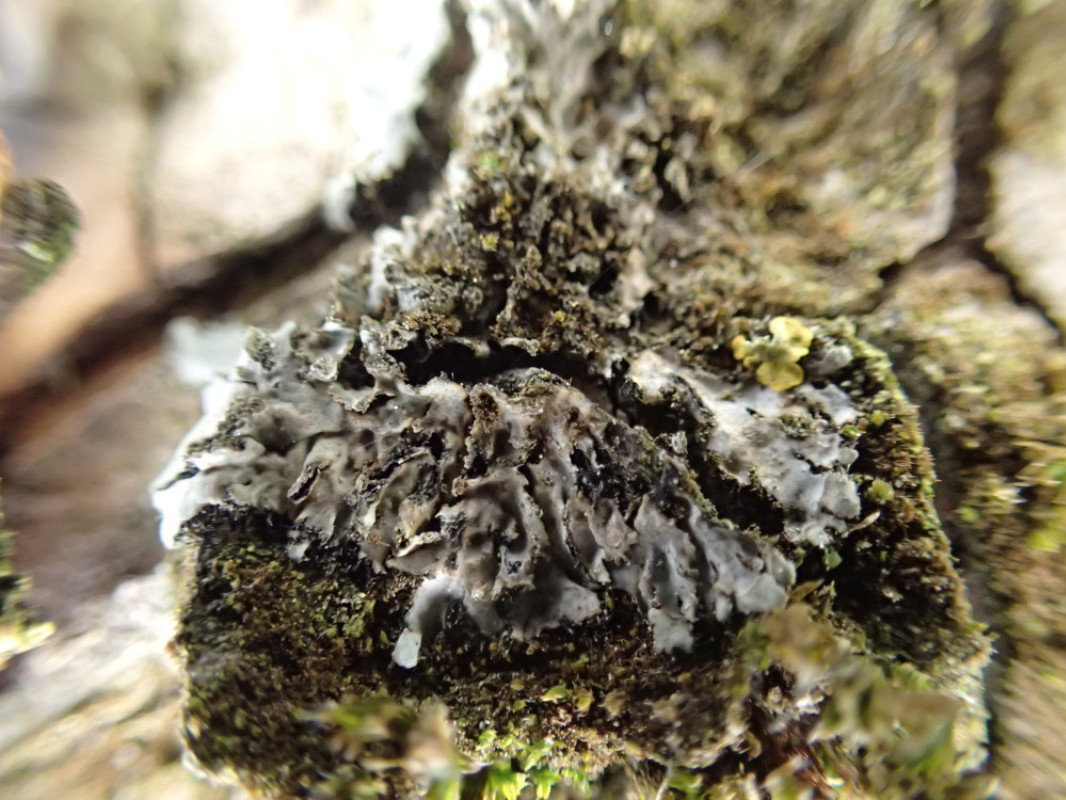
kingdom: Fungi
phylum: Ascomycota
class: Lecanoromycetes
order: Caliciales
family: Physciaceae
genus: Phaeophyscia
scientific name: Phaeophyscia orbicularis
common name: grågrøn rosetlav
